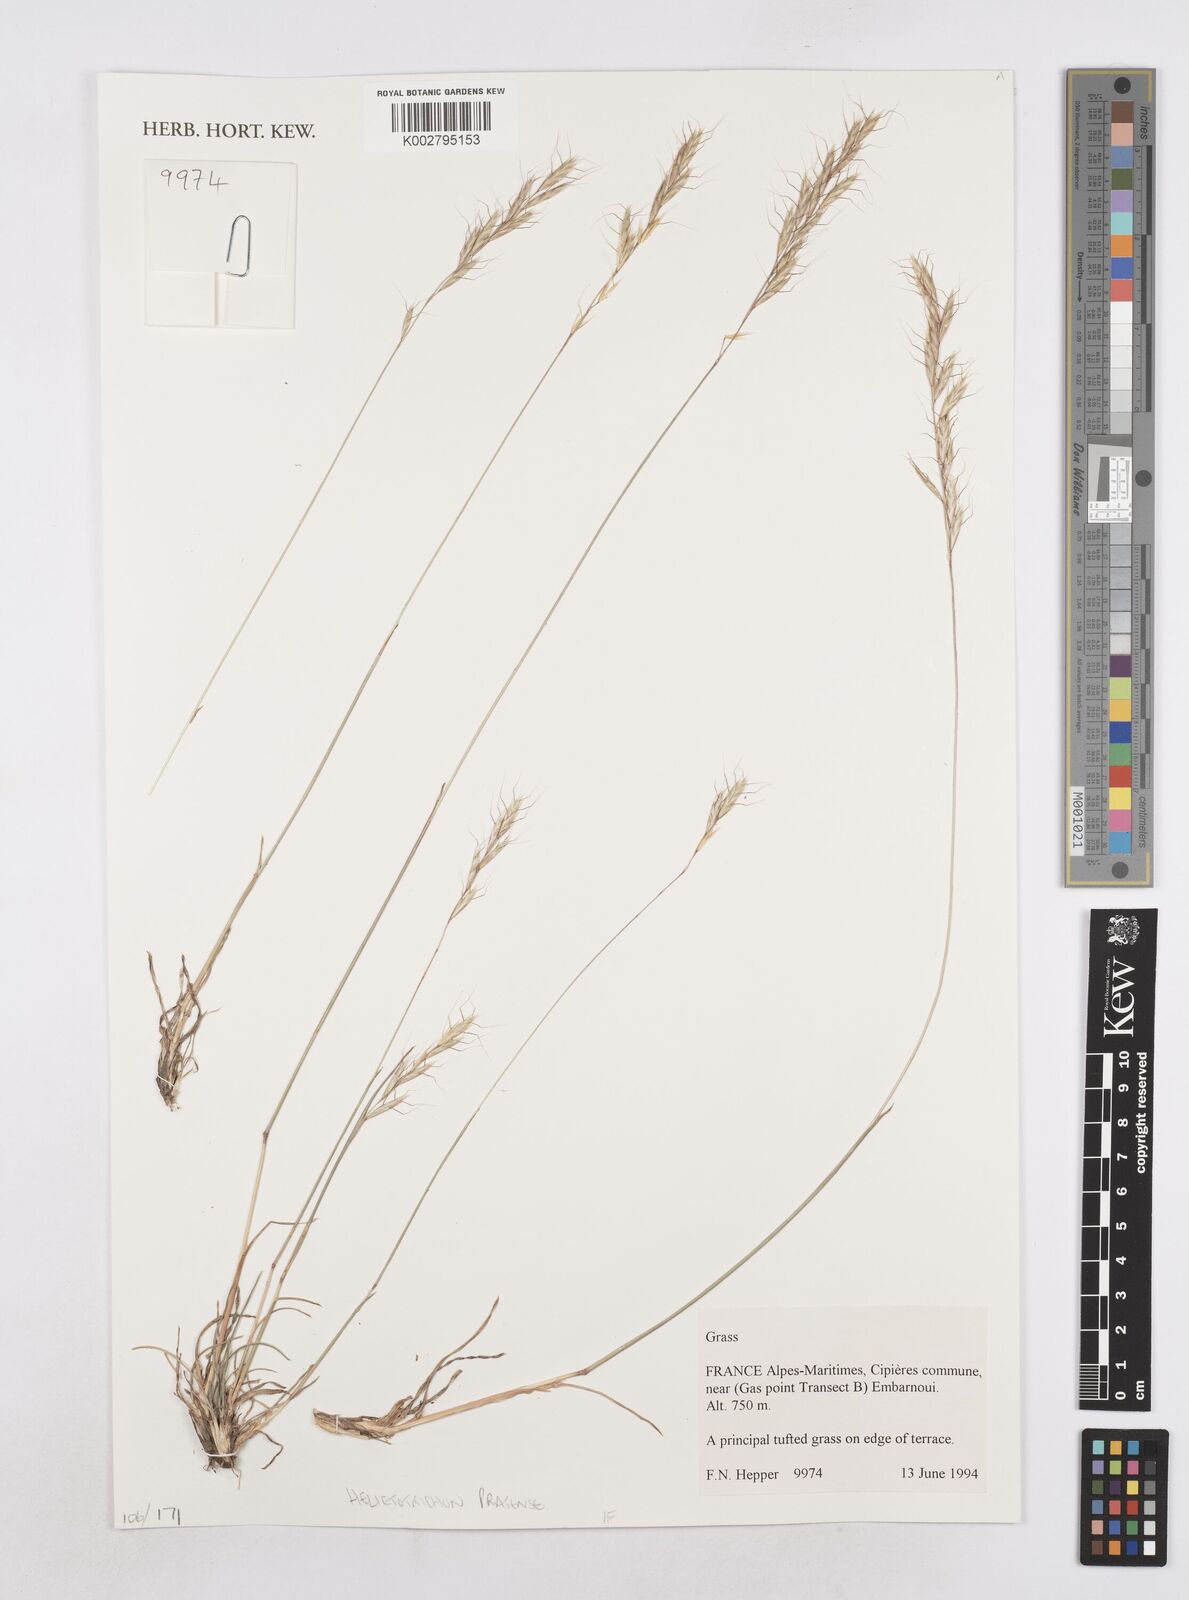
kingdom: Plantae
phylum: Tracheophyta
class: Liliopsida
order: Poales
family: Poaceae
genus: Helictochloa
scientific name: Helictochloa pratensis
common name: Meadow oat grass
